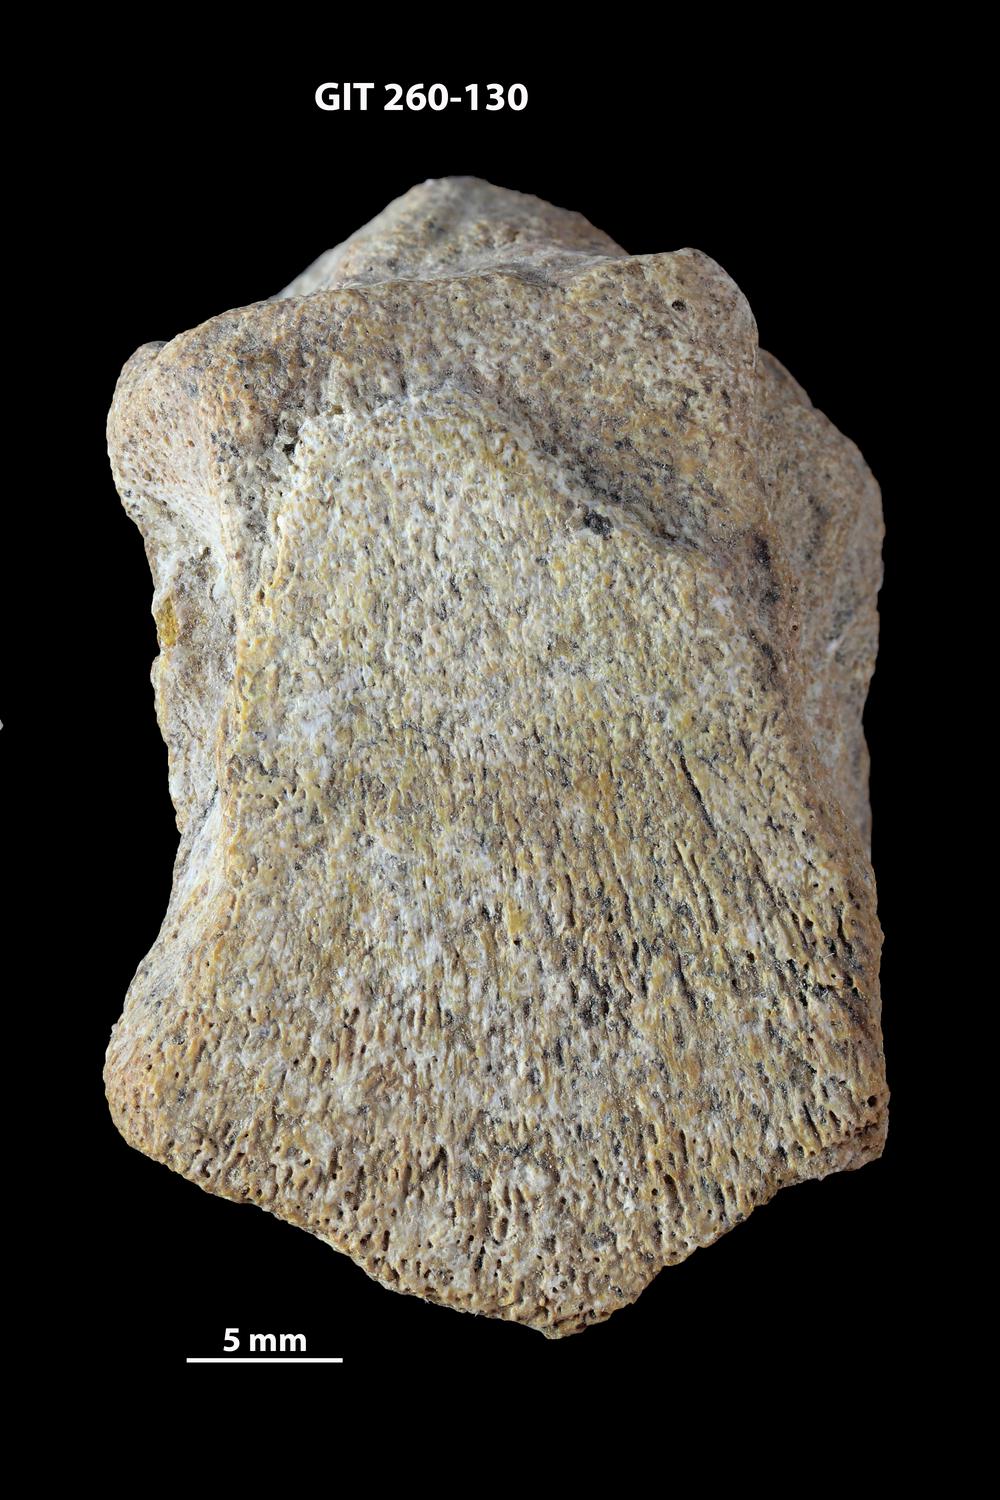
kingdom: Animalia
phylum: Chordata
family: Homostiidae
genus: Homostius
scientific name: Homostius
